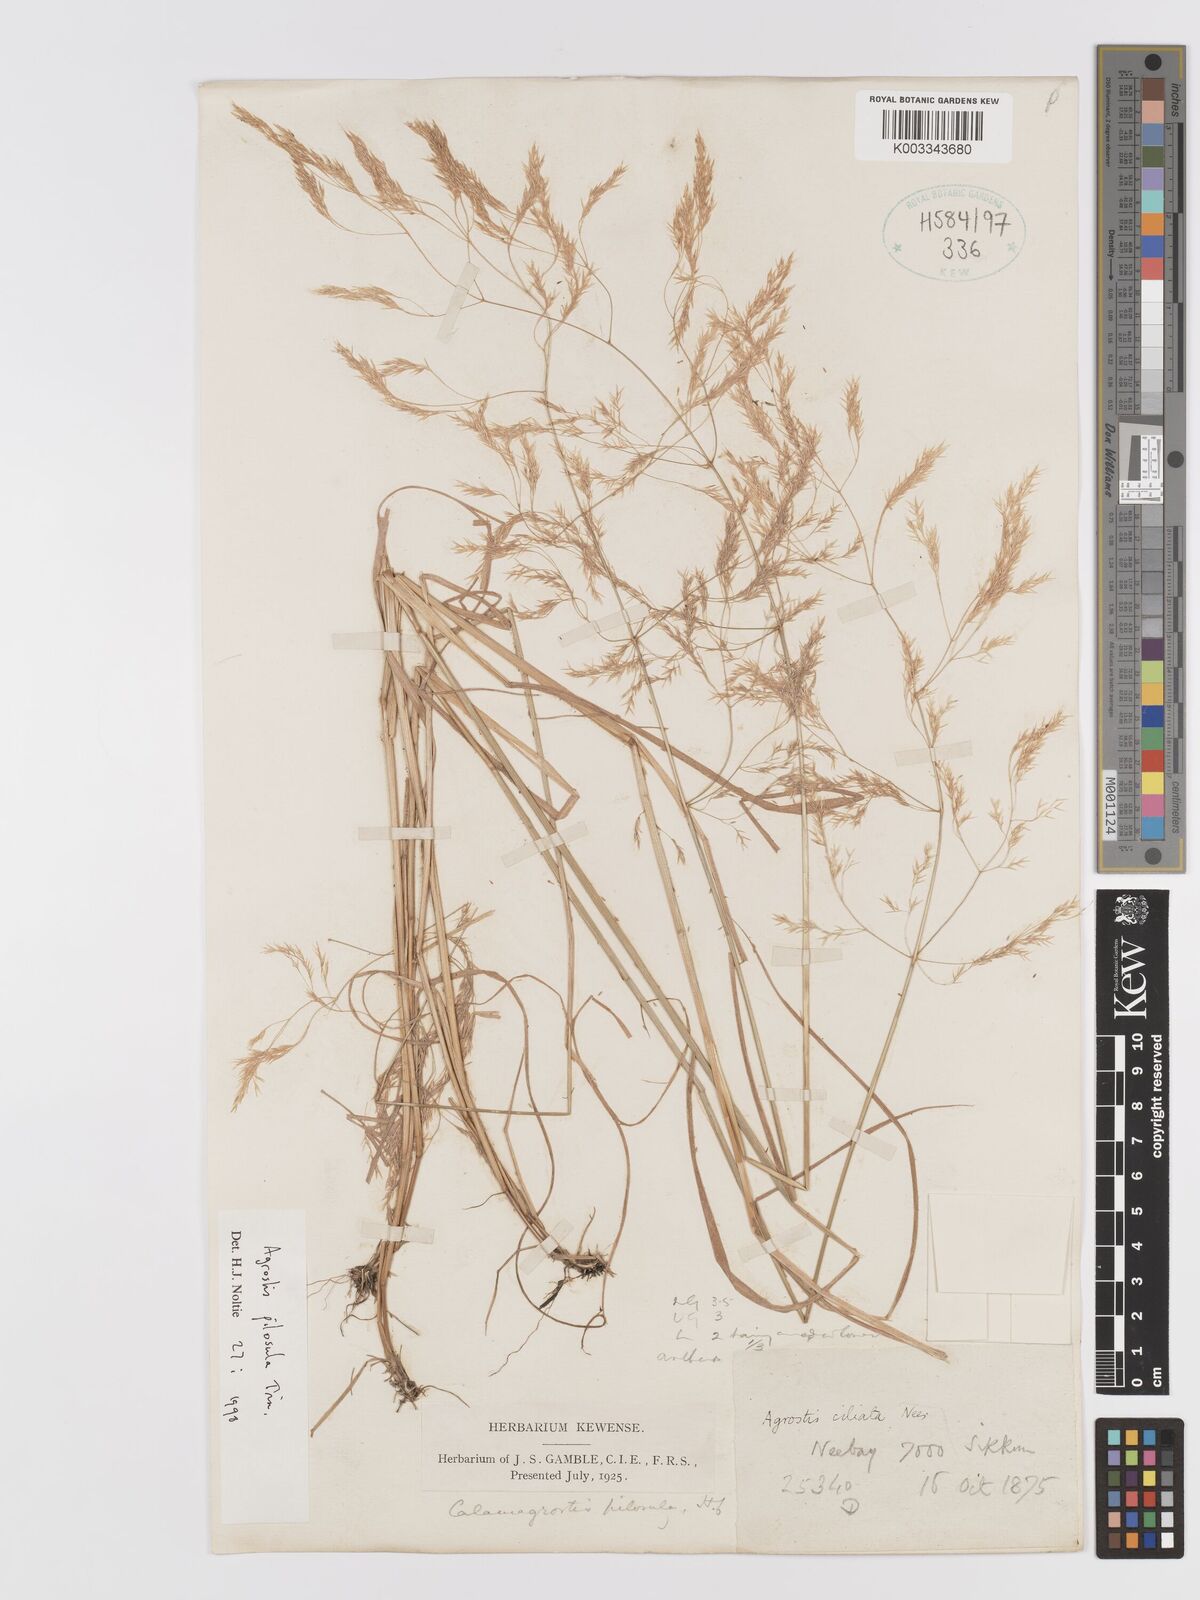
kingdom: Plantae
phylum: Tracheophyta
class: Liliopsida
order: Poales
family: Poaceae
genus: Agrostis
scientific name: Agrostis pilosula
